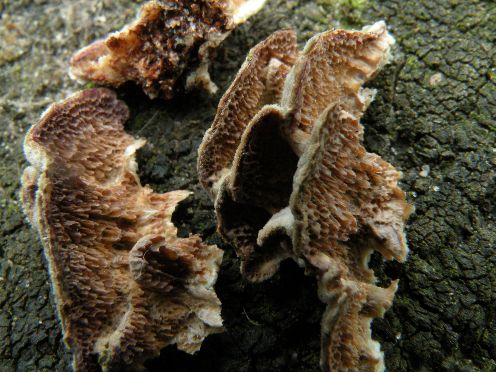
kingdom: Fungi
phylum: Basidiomycota
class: Agaricomycetes
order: Hymenochaetales
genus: Trichaptum
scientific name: Trichaptum fuscoviolaceum
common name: tandet violporesvamp
